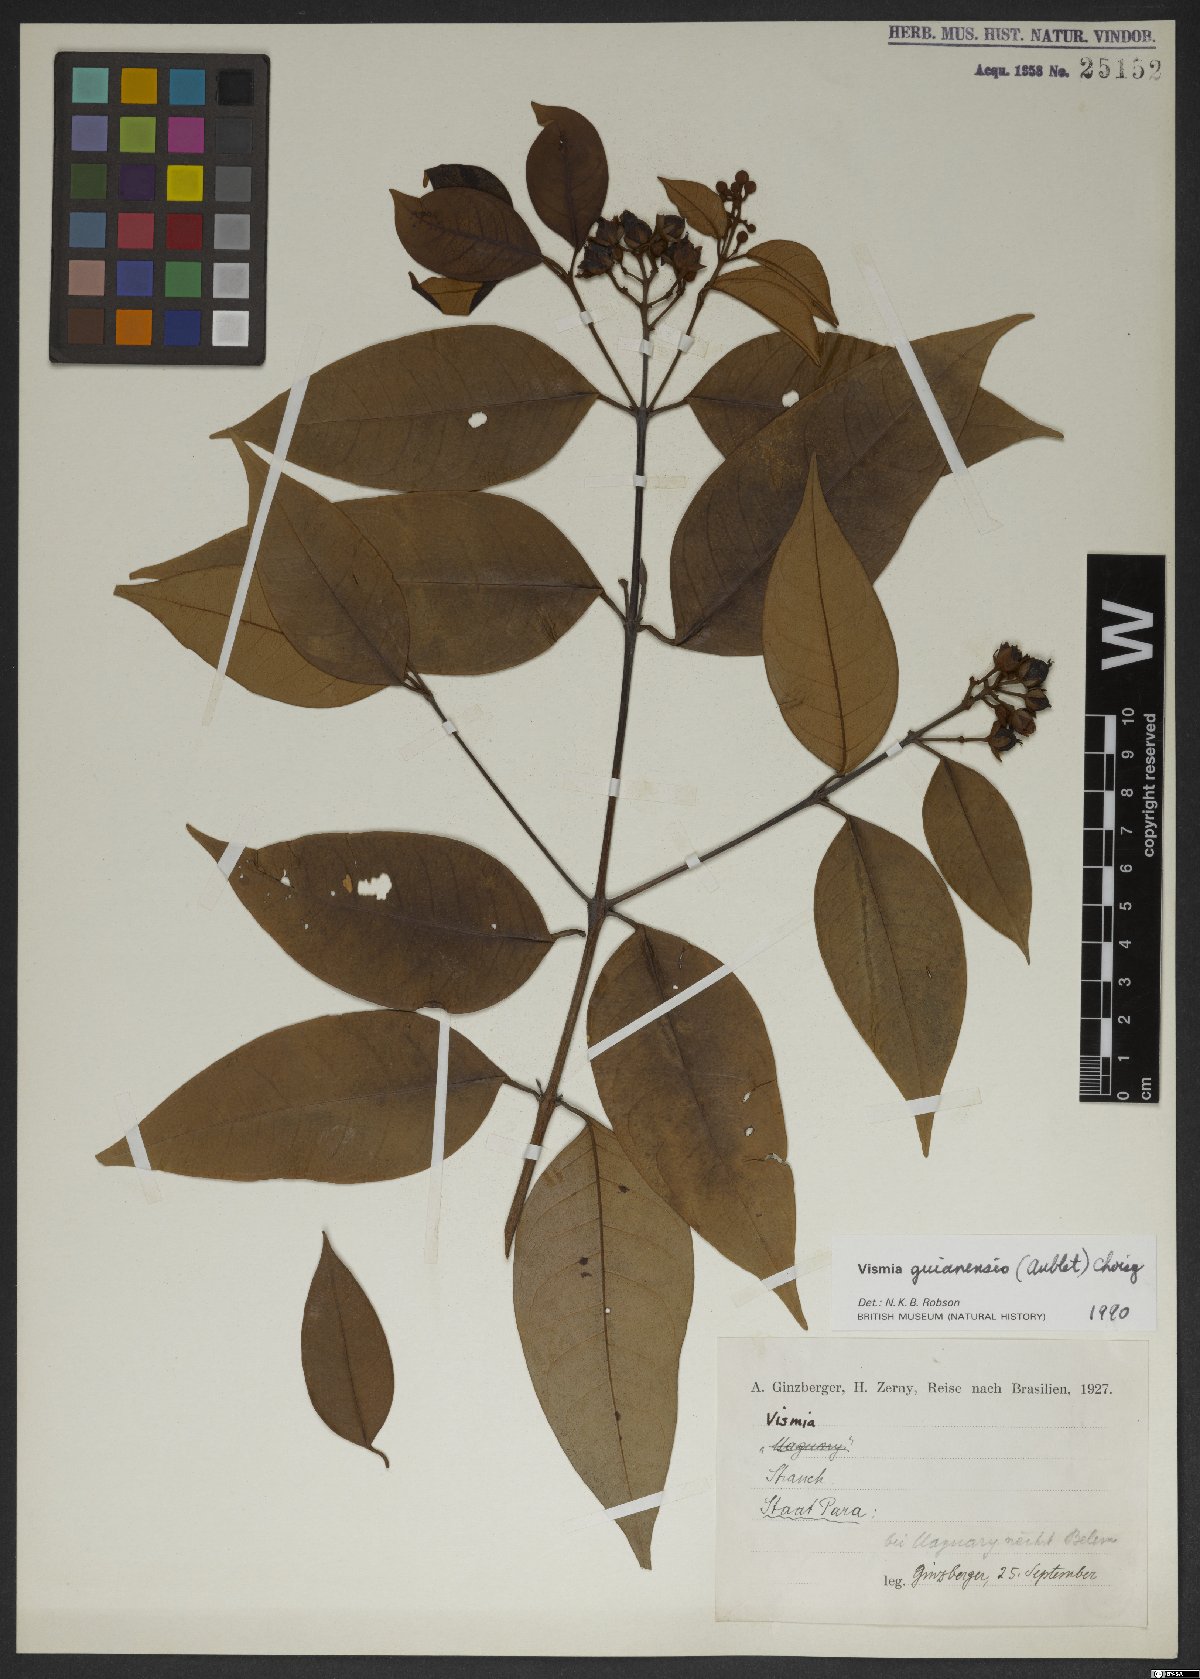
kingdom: Plantae
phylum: Tracheophyta
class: Magnoliopsida
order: Malpighiales
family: Hypericaceae
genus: Vismia
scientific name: Vismia guianensis
